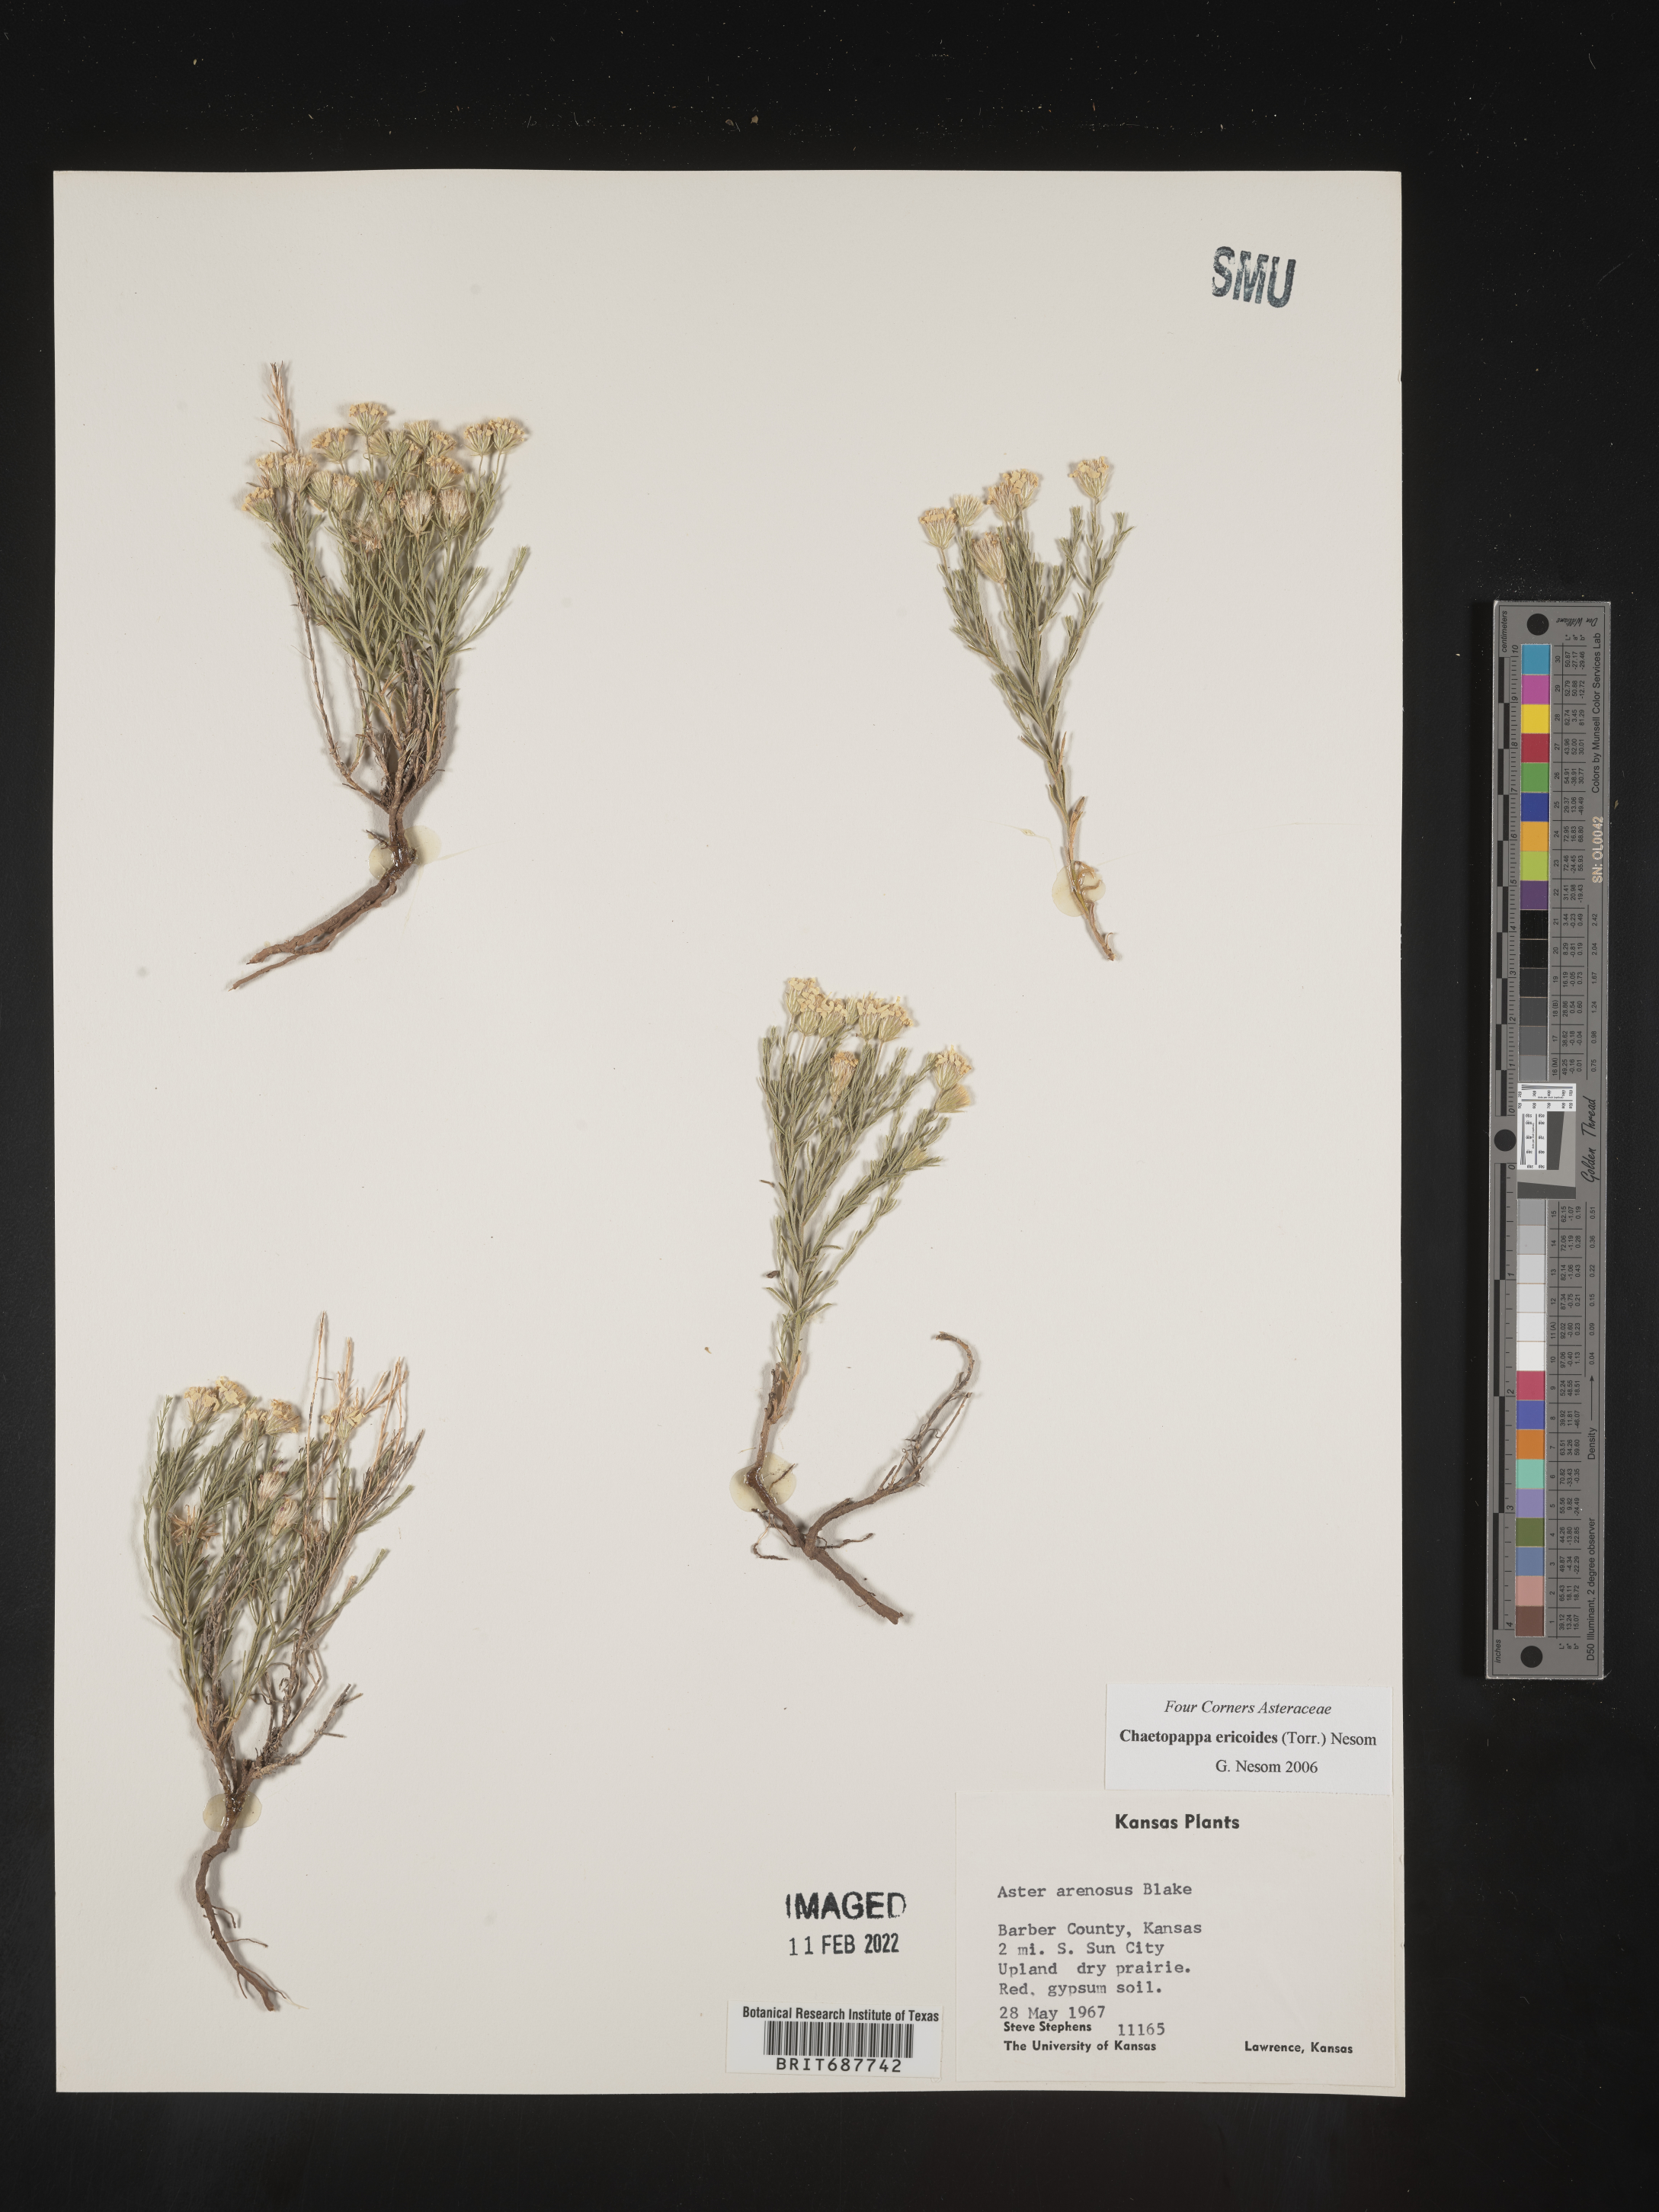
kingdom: Plantae
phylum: Tracheophyta
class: Magnoliopsida
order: Asterales
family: Asteraceae
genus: Chaetopappa
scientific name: Chaetopappa ericoides
